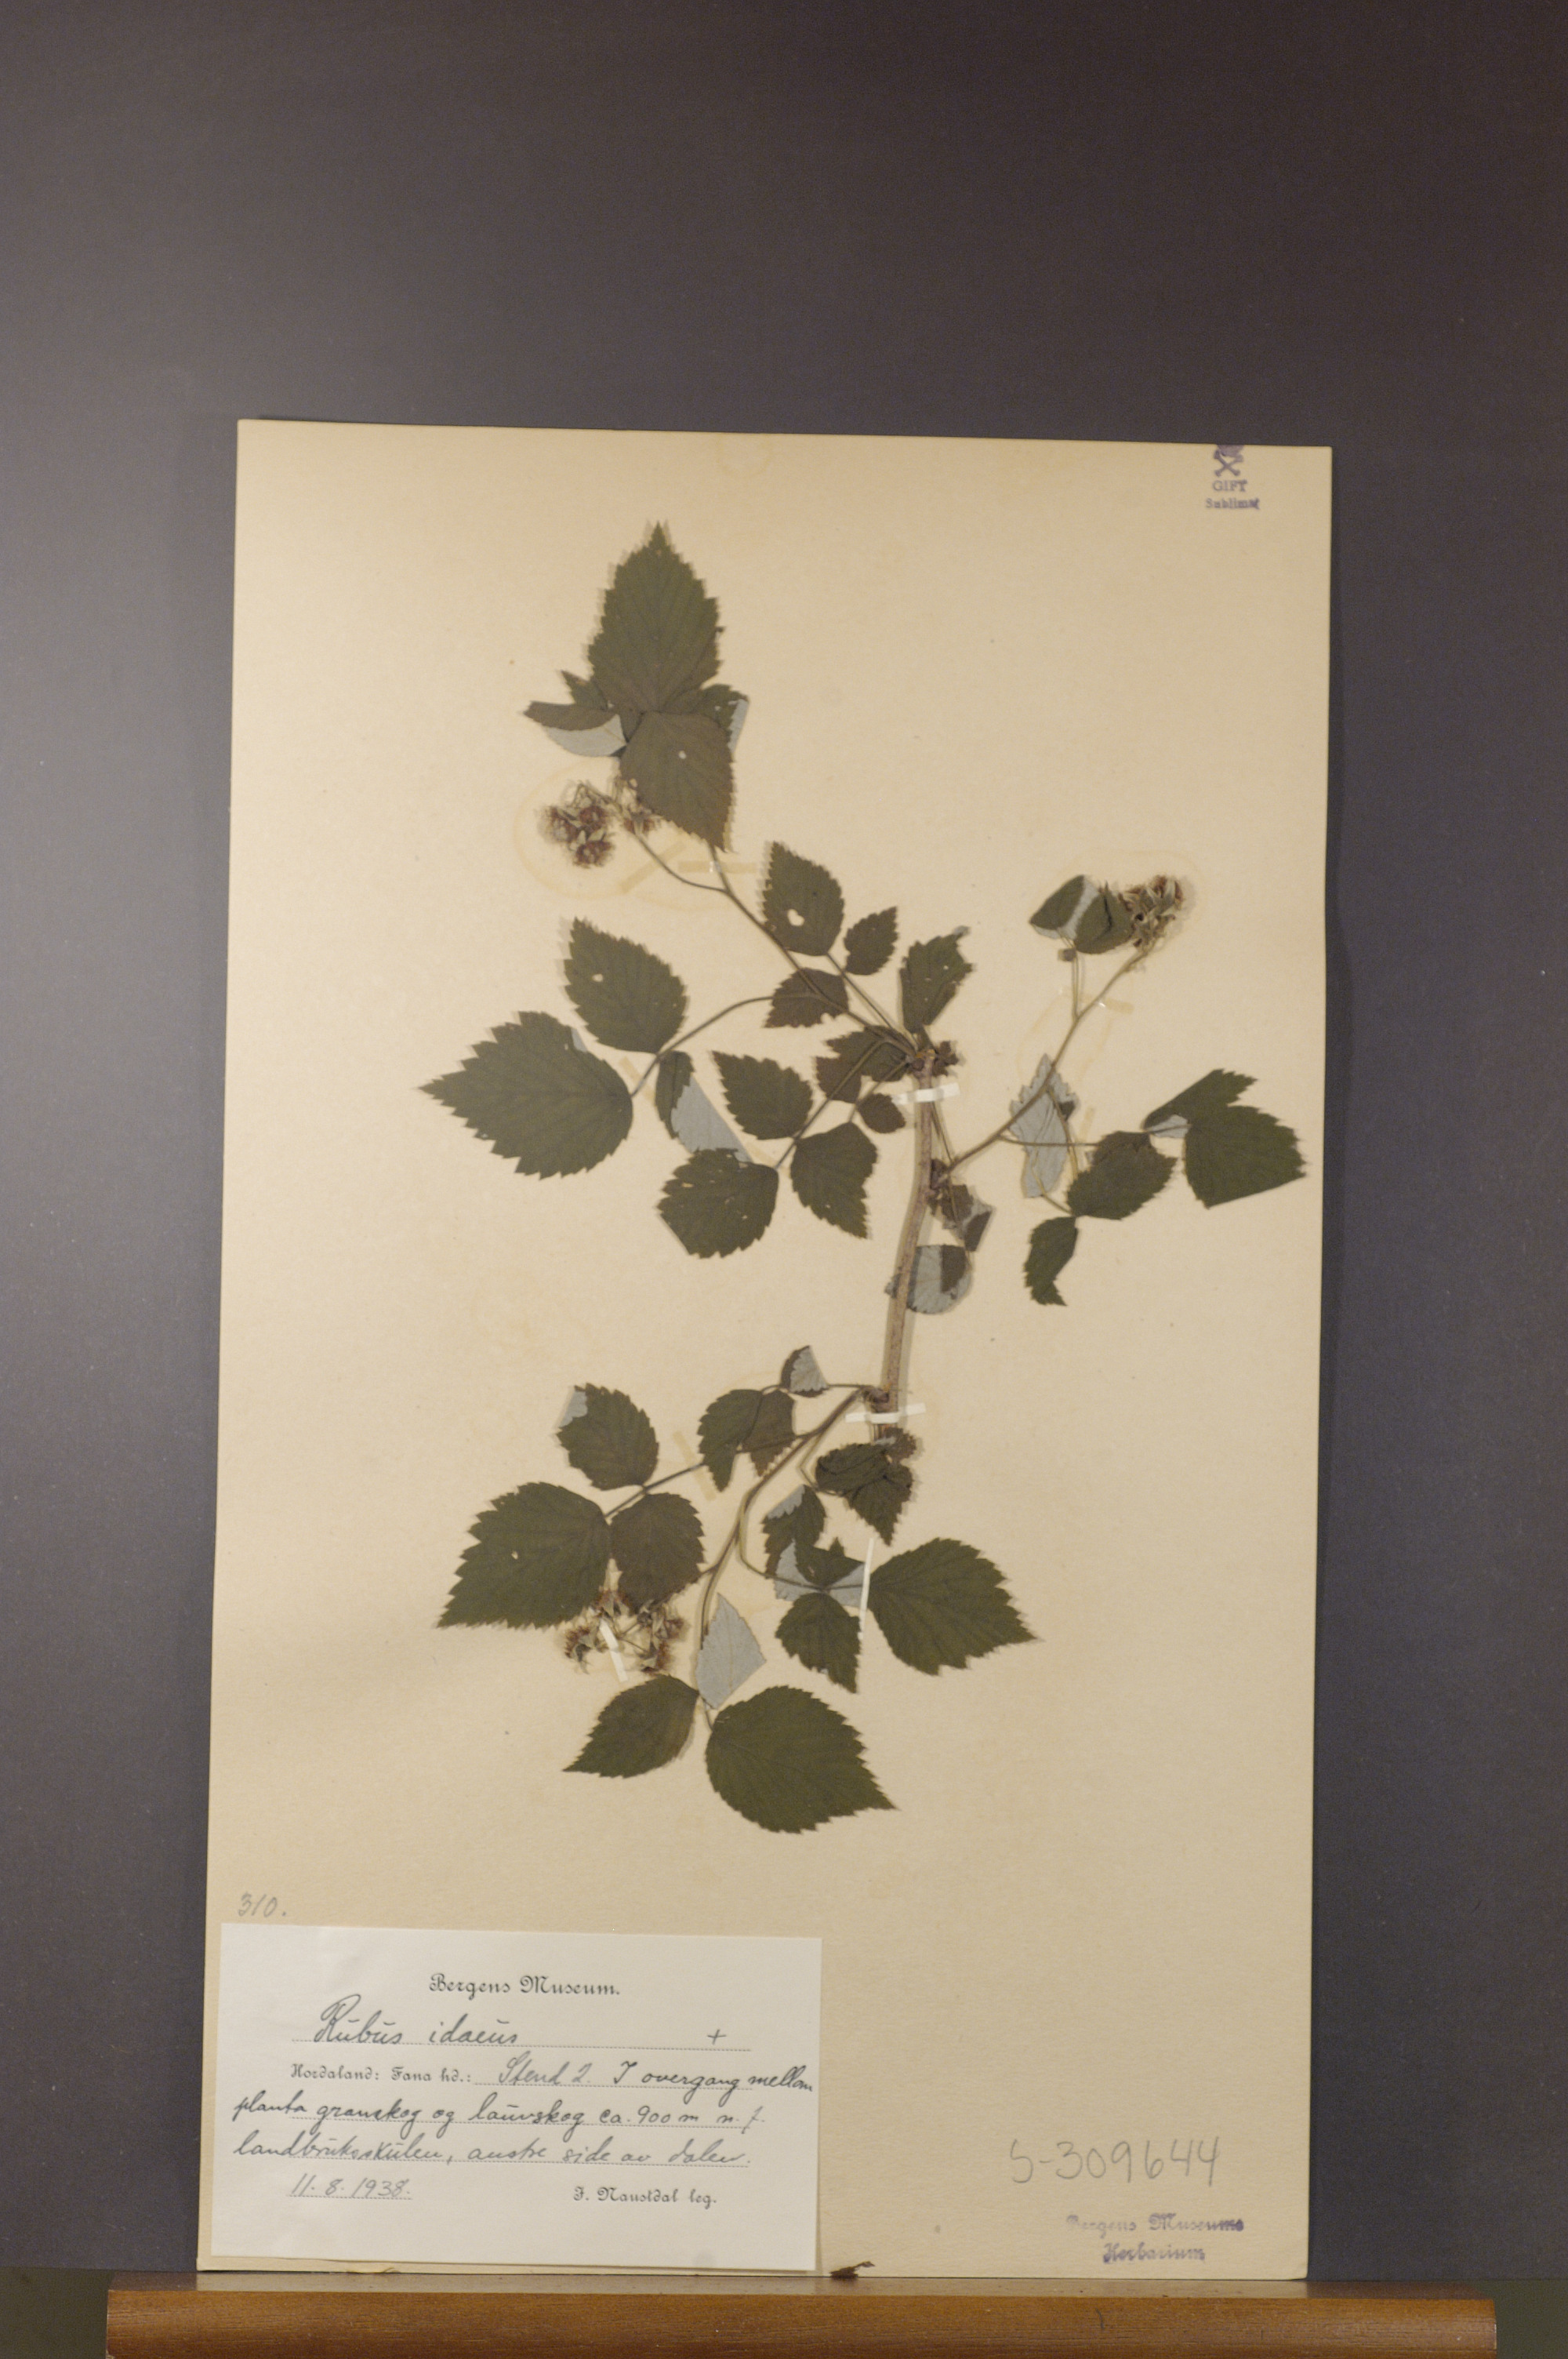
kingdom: Plantae
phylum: Tracheophyta
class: Magnoliopsida
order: Rosales
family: Rosaceae
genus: Rubus
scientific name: Rubus idaeus
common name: Raspberry
